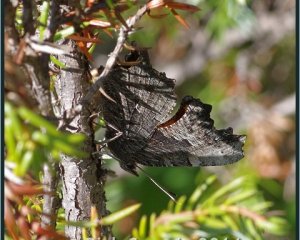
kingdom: Animalia
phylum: Arthropoda
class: Insecta
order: Lepidoptera
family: Nymphalidae
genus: Polygonia
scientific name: Polygonia progne
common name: Gray Comma
